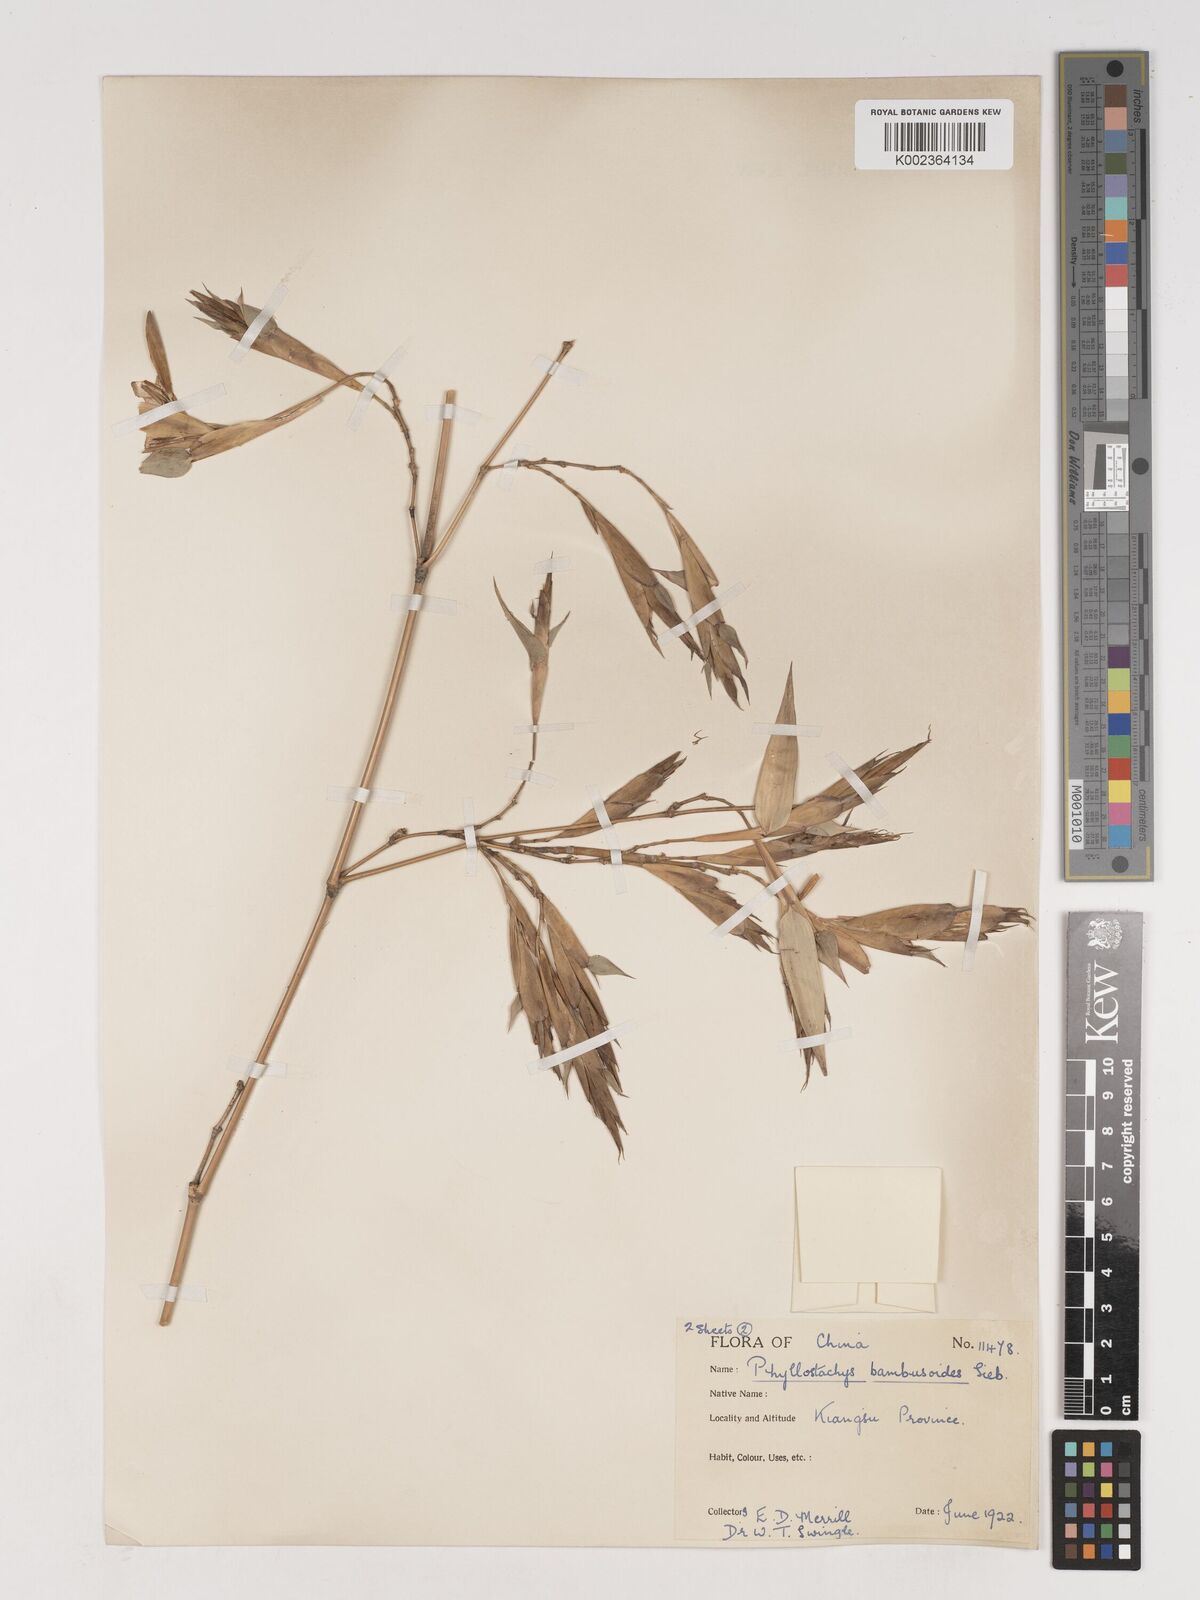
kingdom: Plantae
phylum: Tracheophyta
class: Liliopsida
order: Poales
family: Poaceae
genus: Phyllostachys
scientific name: Phyllostachys reticulata
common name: Bamboo
